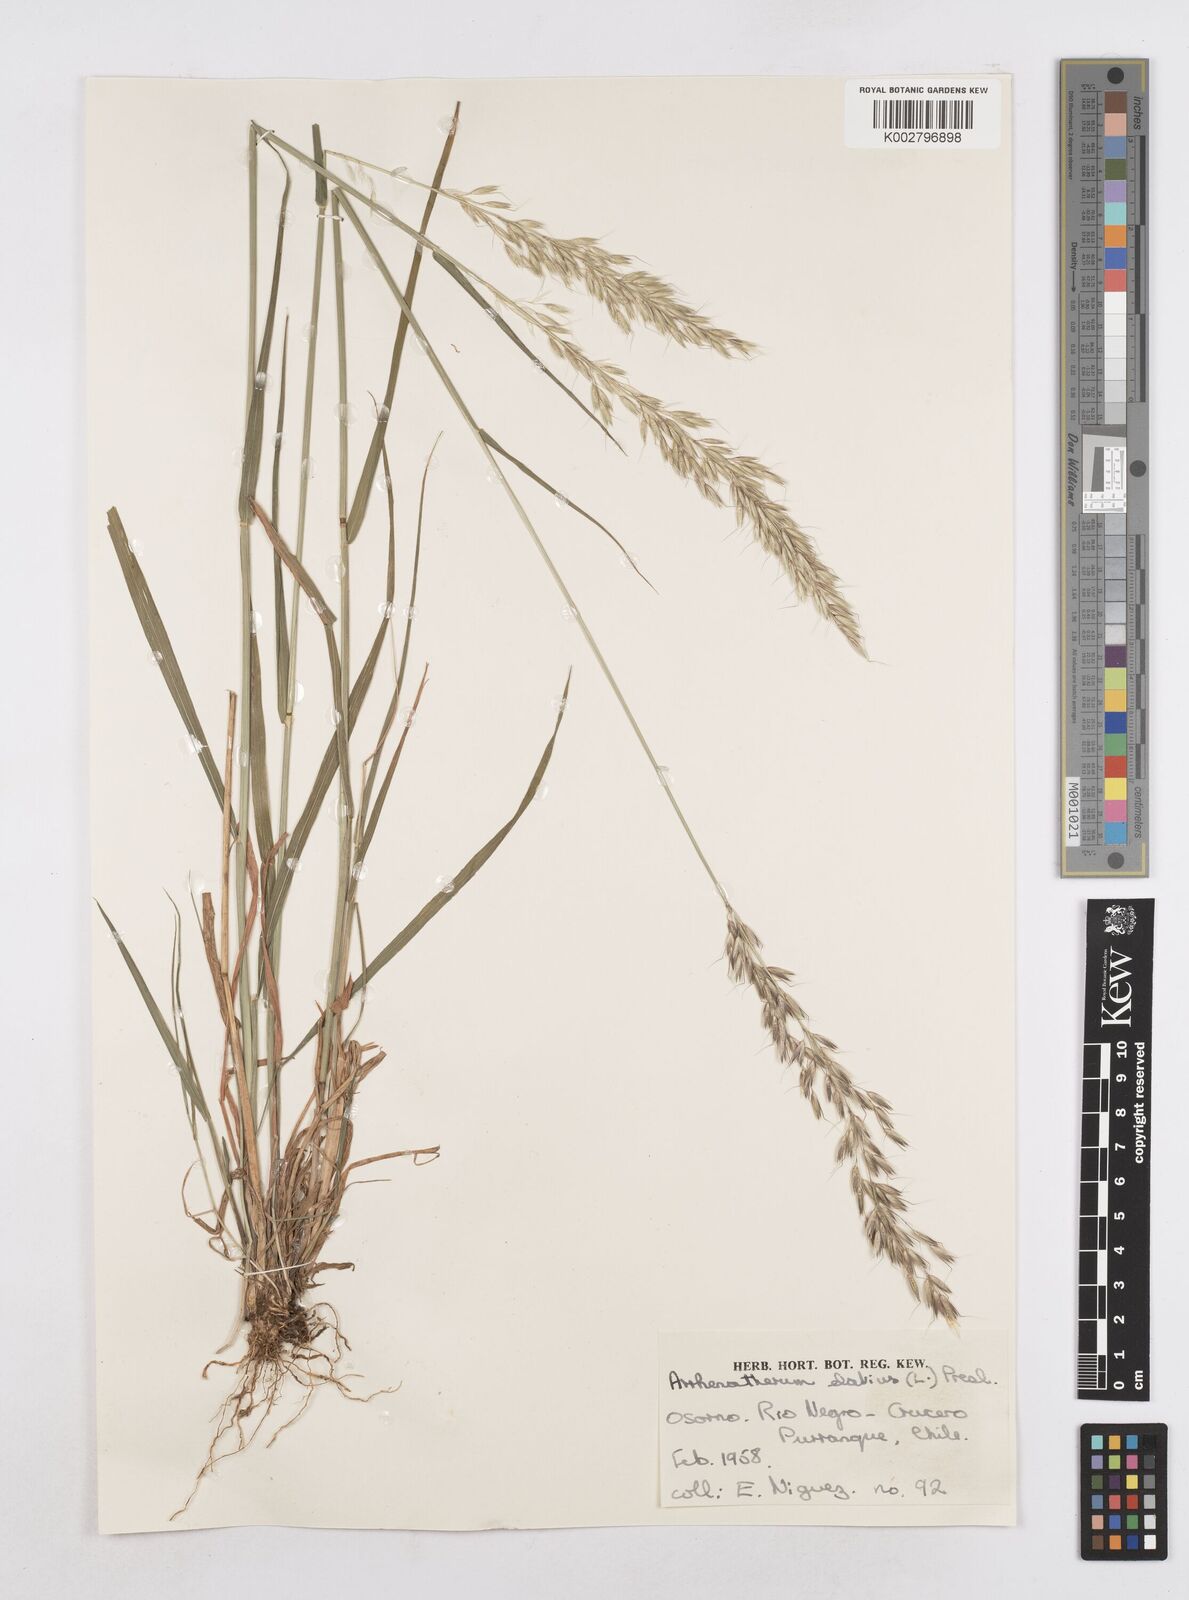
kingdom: Plantae
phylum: Tracheophyta
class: Liliopsida
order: Poales
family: Poaceae
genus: Arrhenatherum
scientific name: Arrhenatherum elatius
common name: Tall oatgrass
